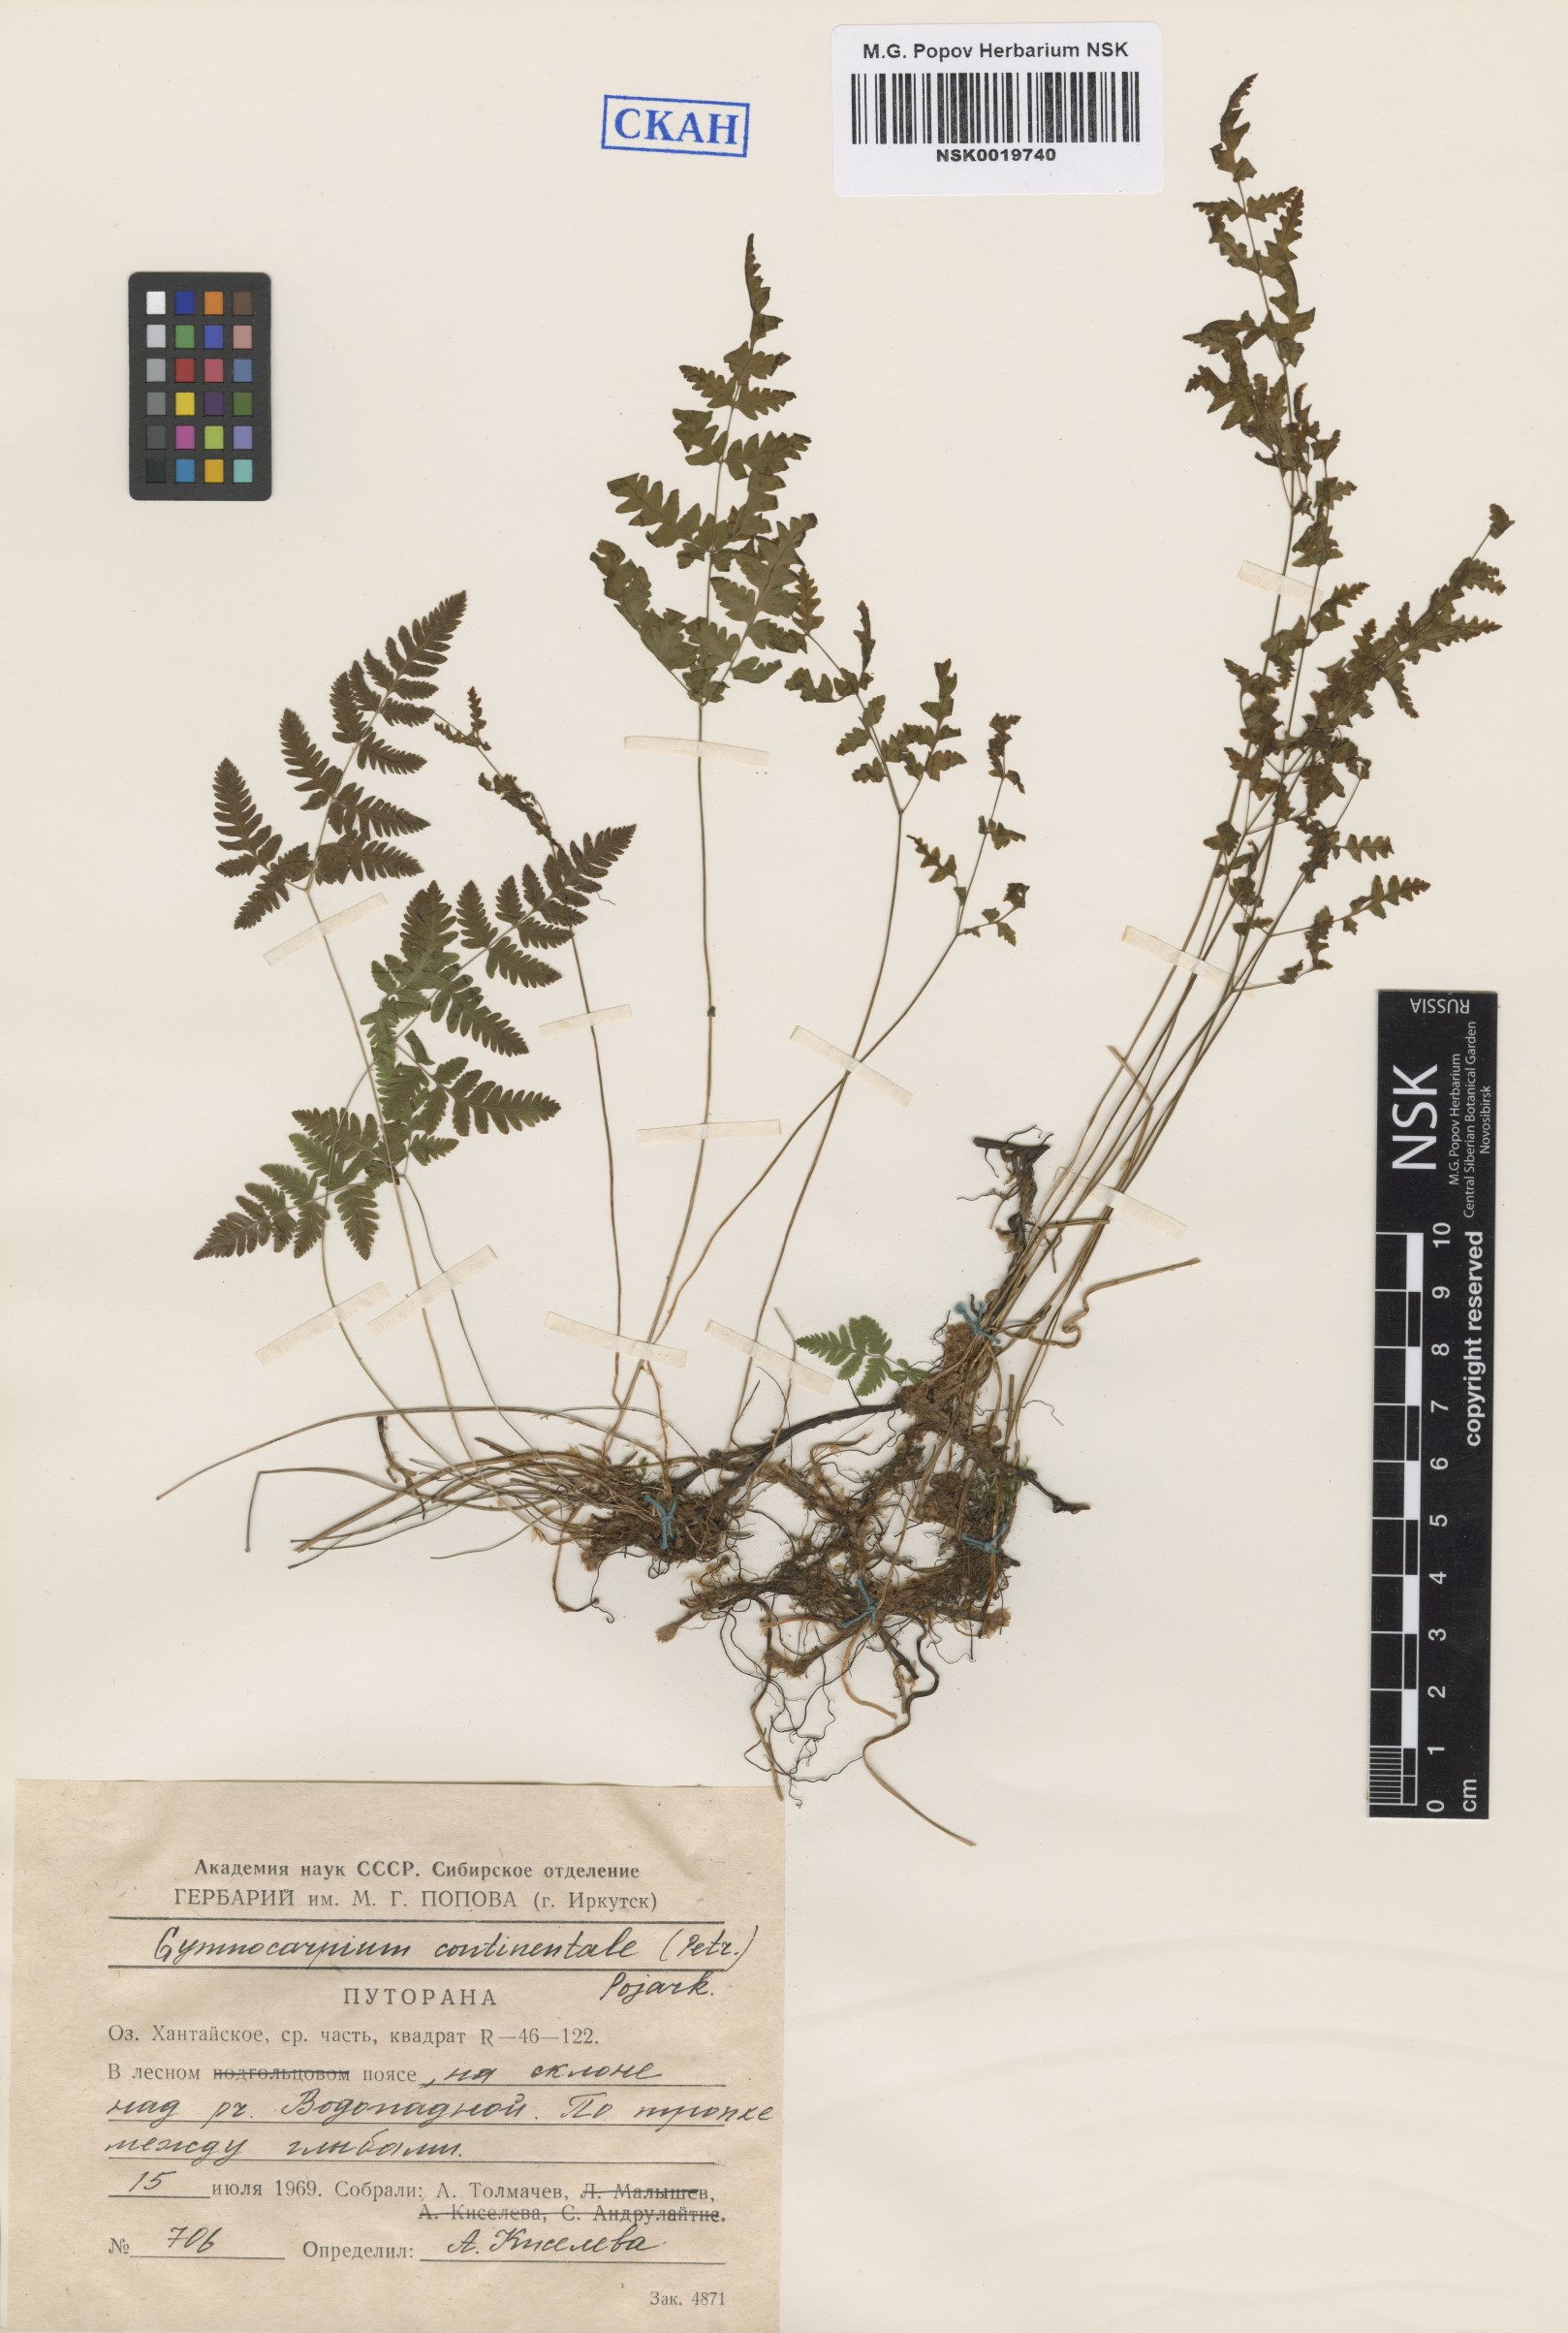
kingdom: Plantae
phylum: Tracheophyta
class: Polypodiopsida
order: Polypodiales
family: Cystopteridaceae
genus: Gymnocarpium
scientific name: Gymnocarpium continentale
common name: Asian oak fern
